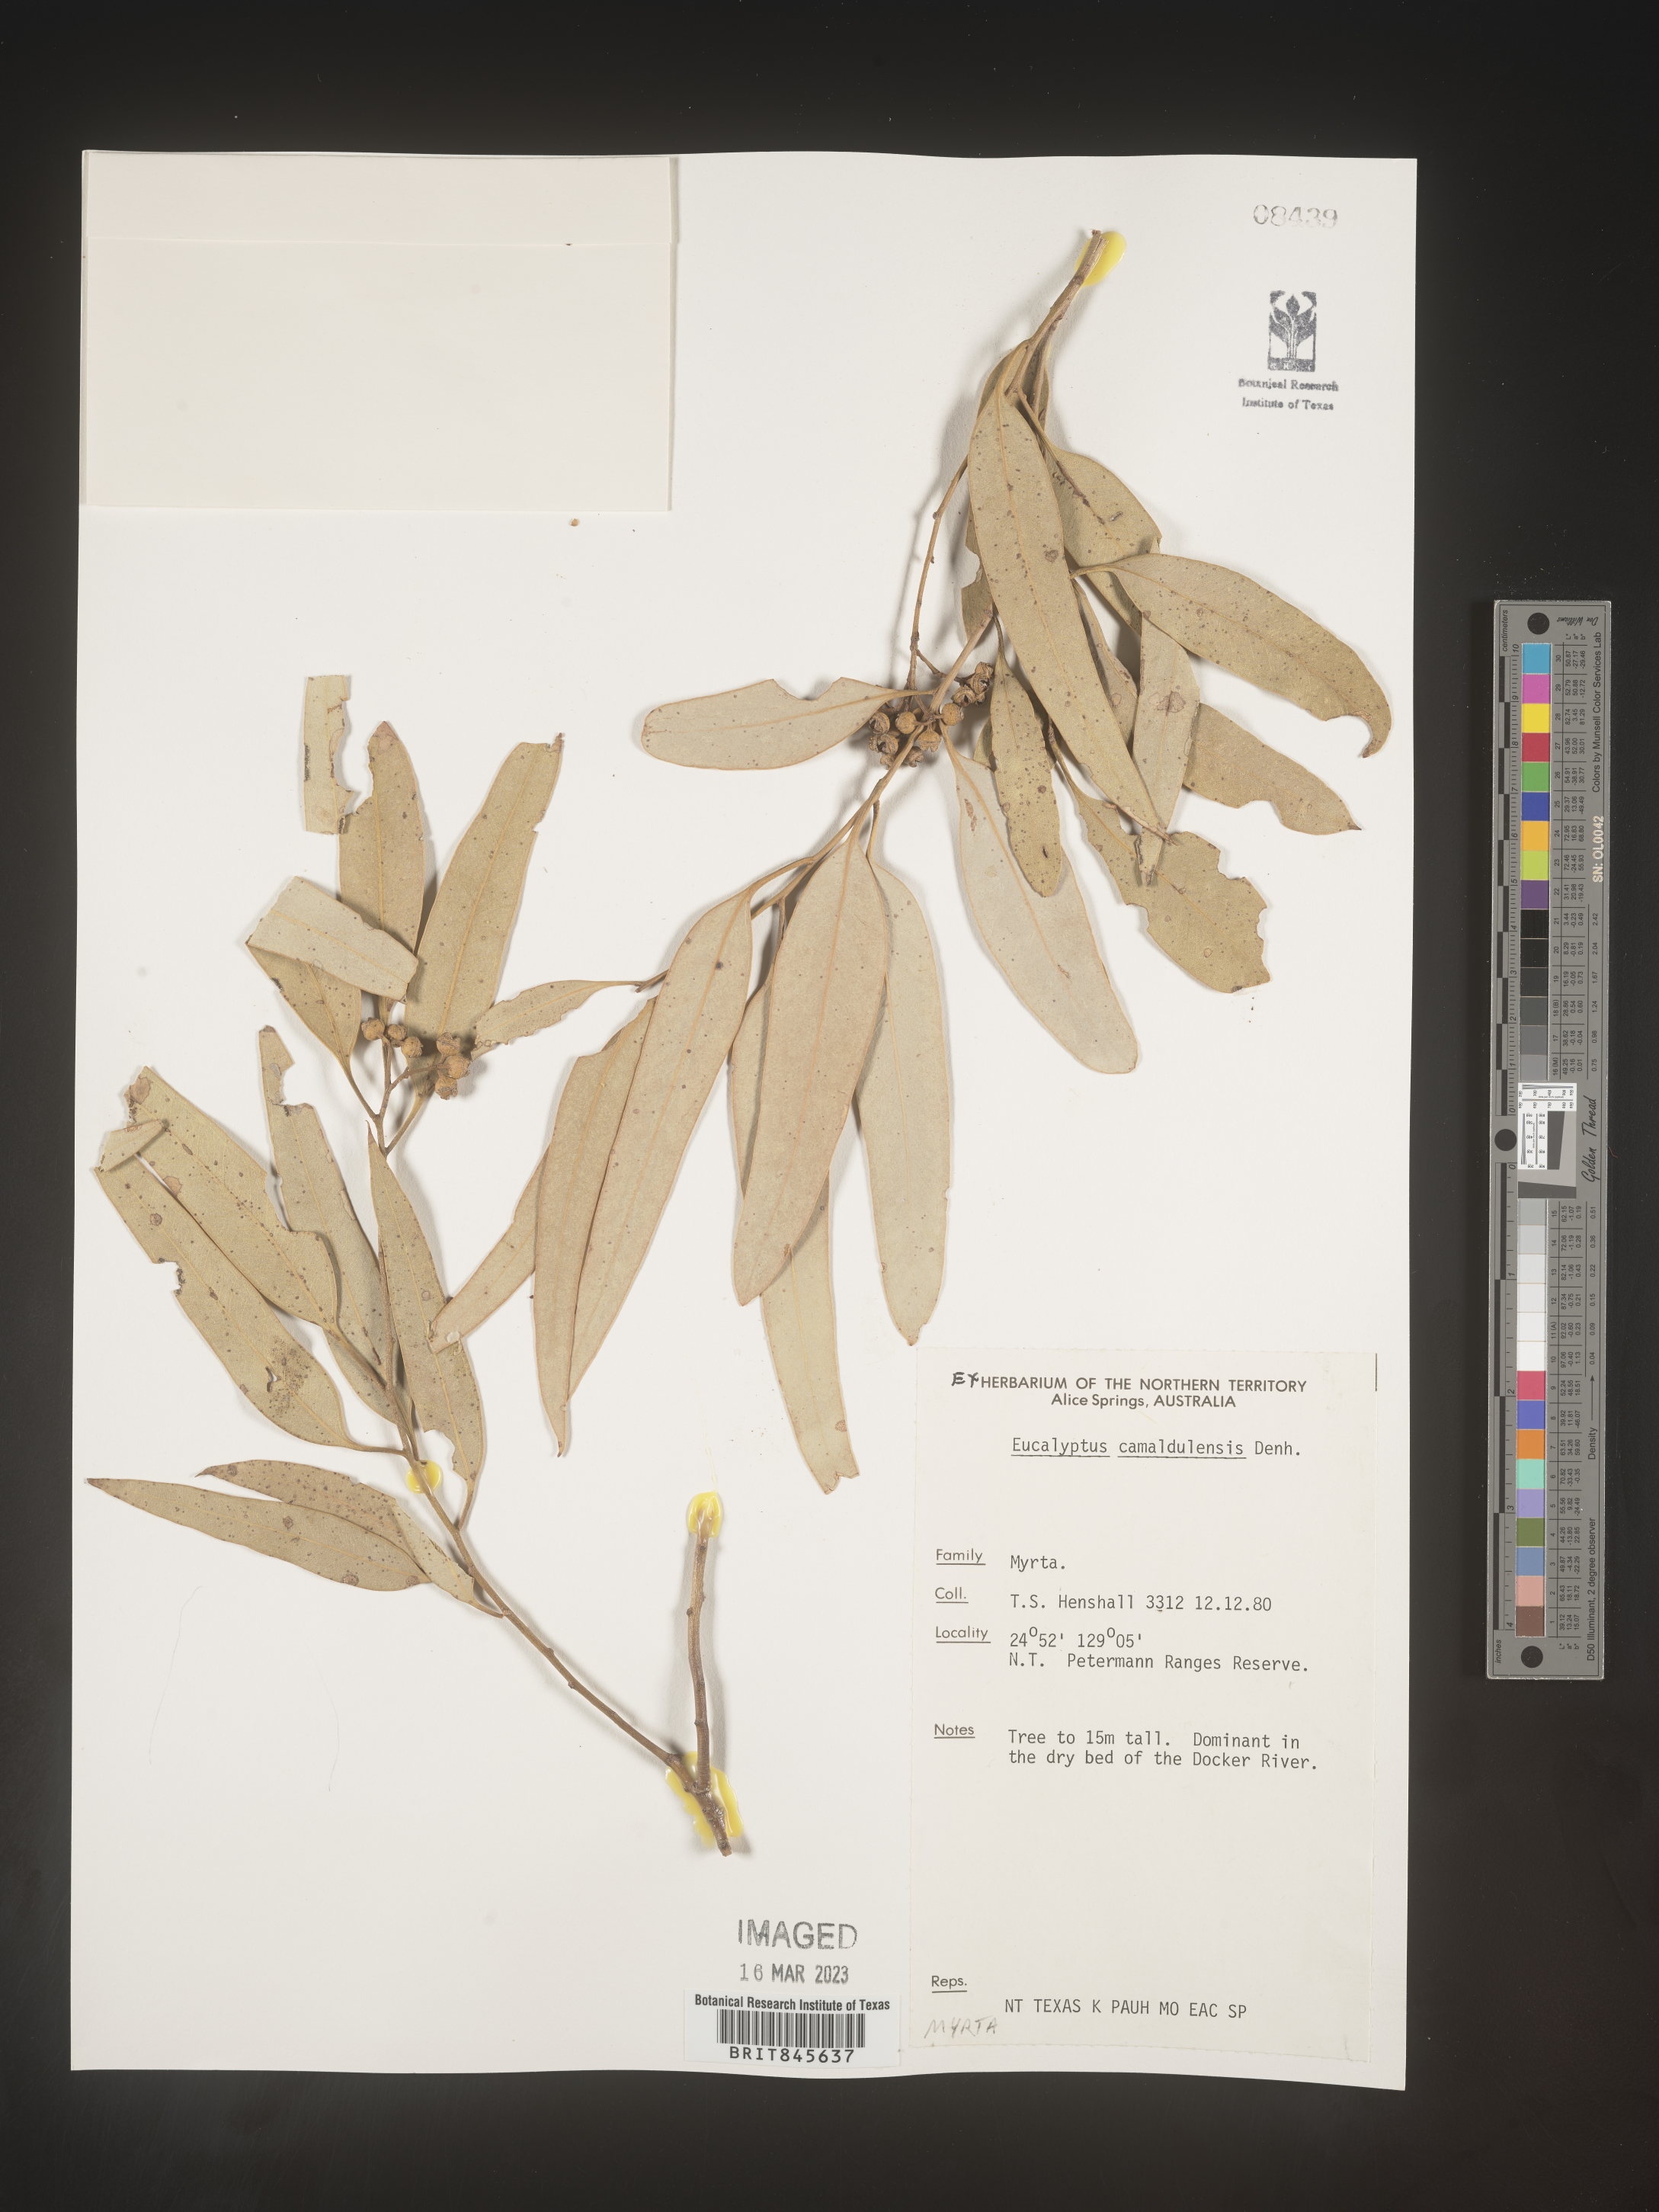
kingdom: Plantae
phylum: Tracheophyta
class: Magnoliopsida
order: Myrtales
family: Myrtaceae
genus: Eucalyptus
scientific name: Eucalyptus
